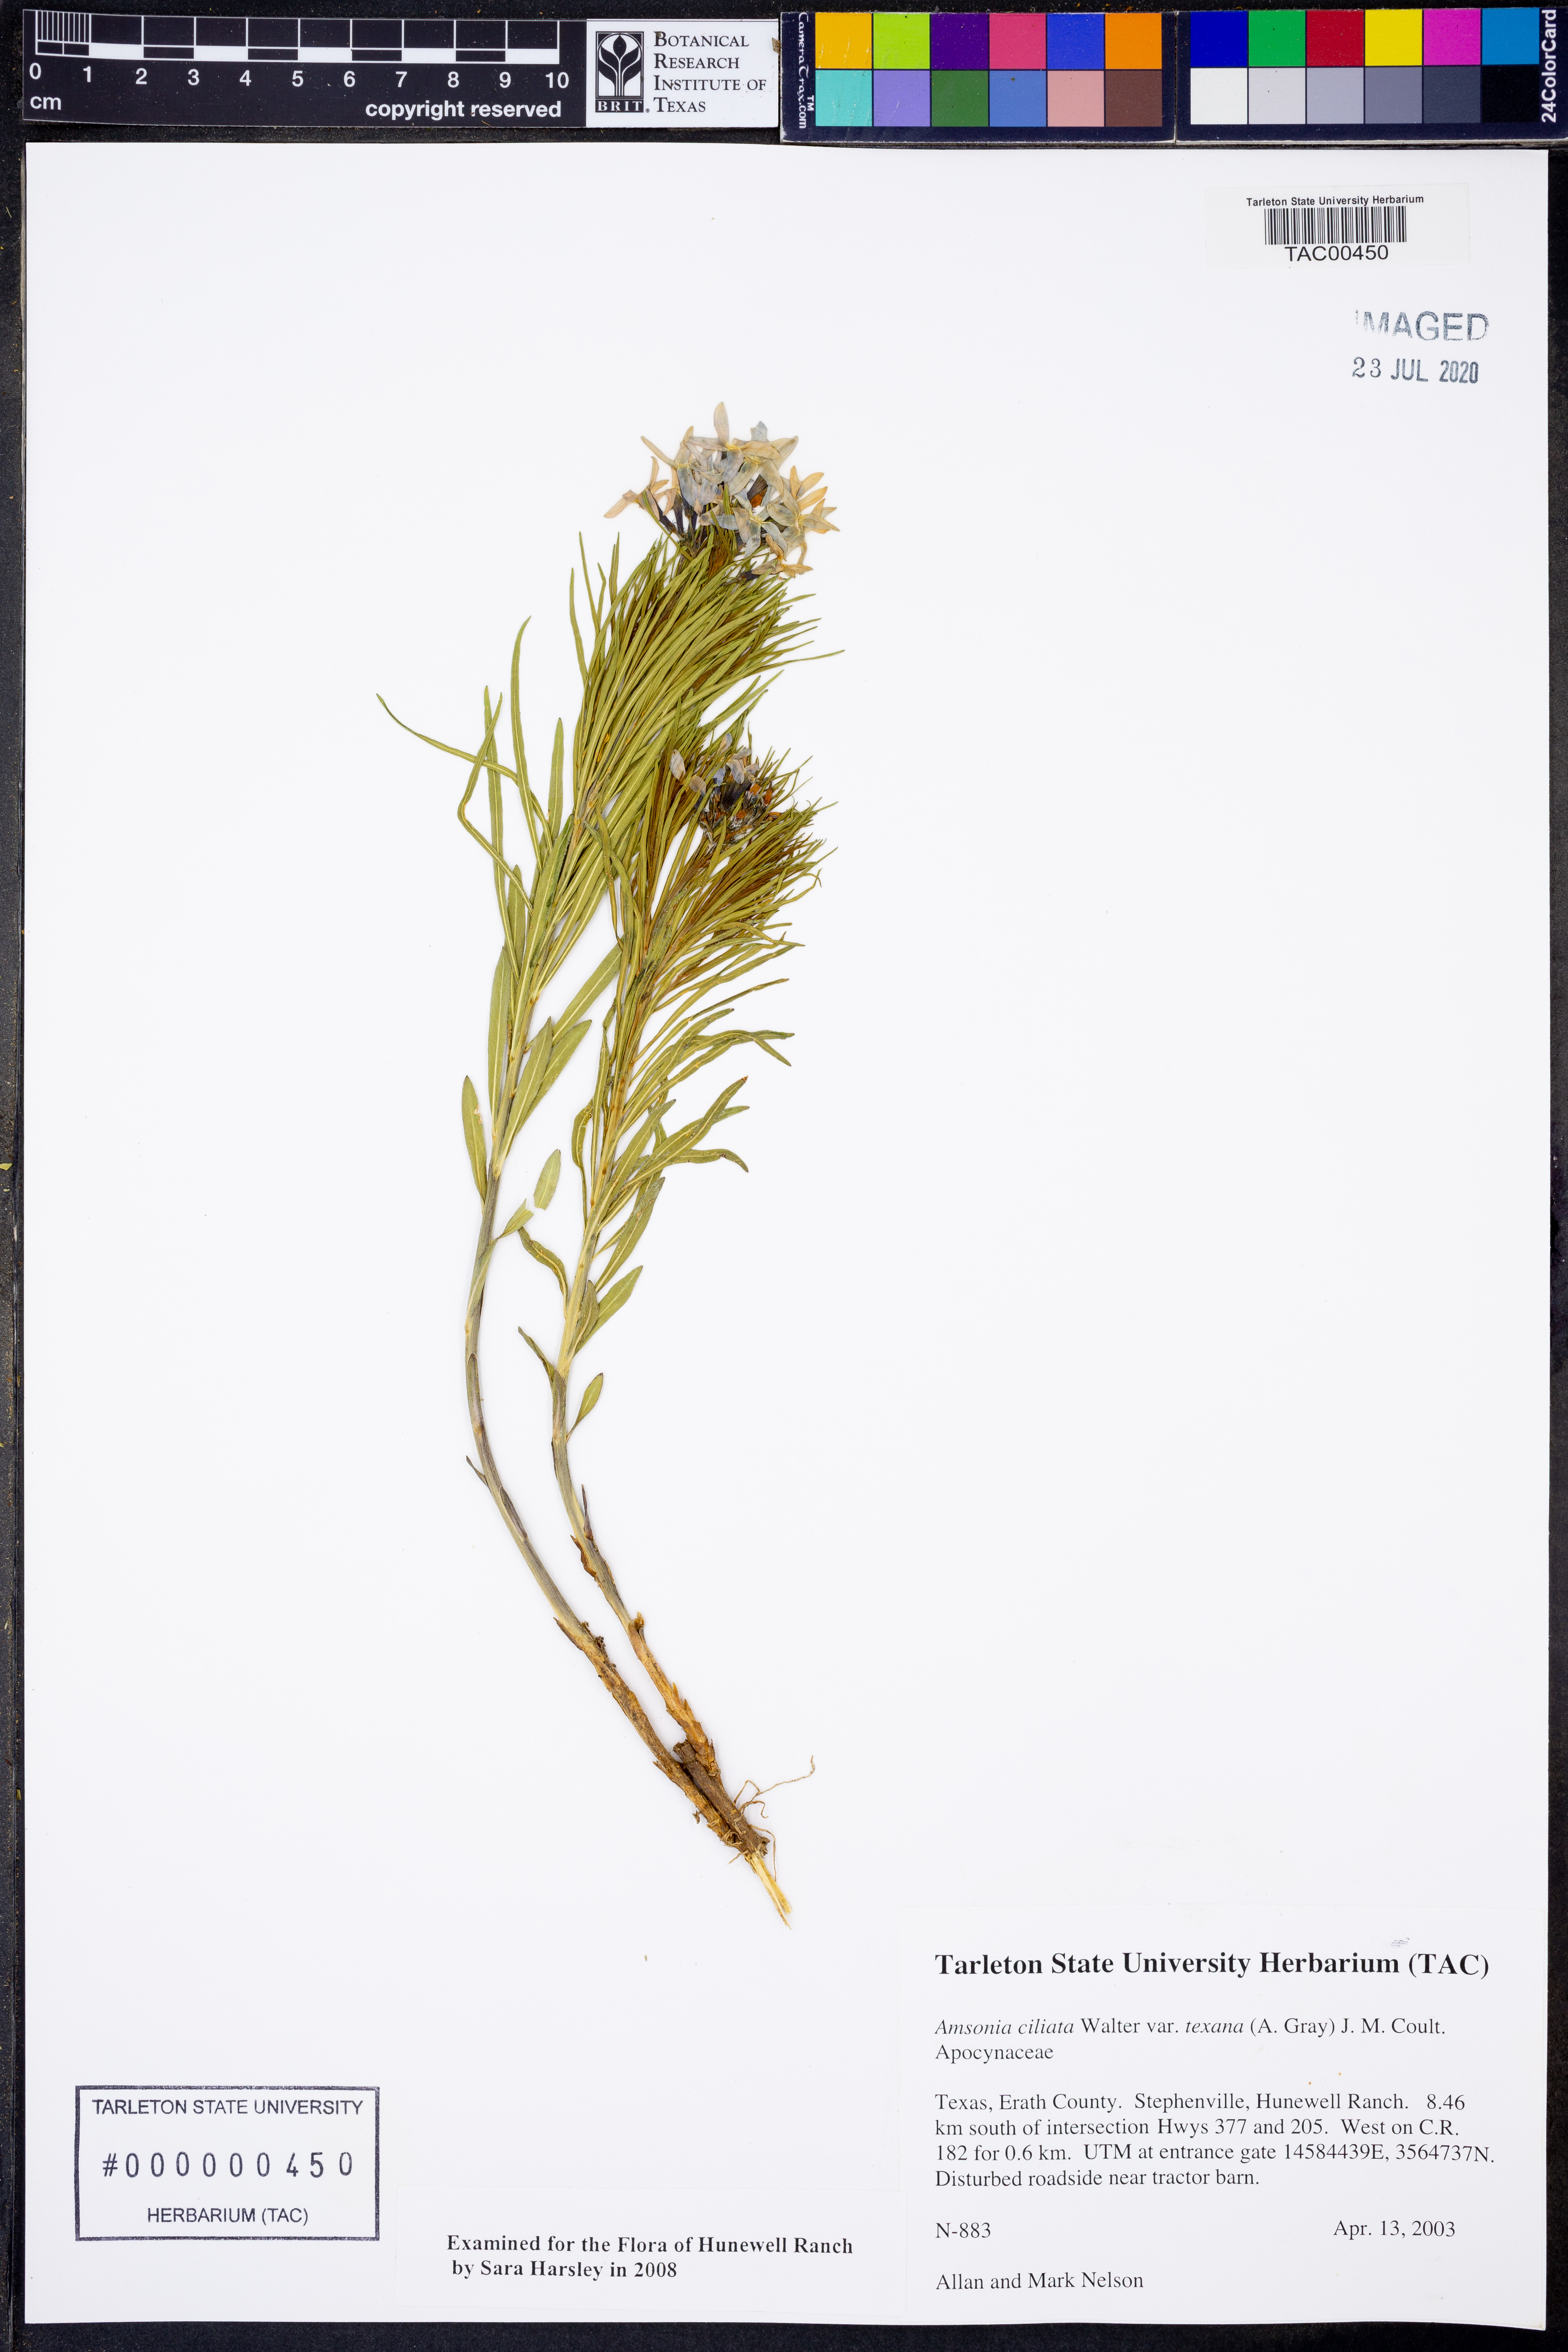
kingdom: Plantae
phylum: Tracheophyta
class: Magnoliopsida
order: Gentianales
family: Apocynaceae
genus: Amsonia
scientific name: Amsonia ciliata
